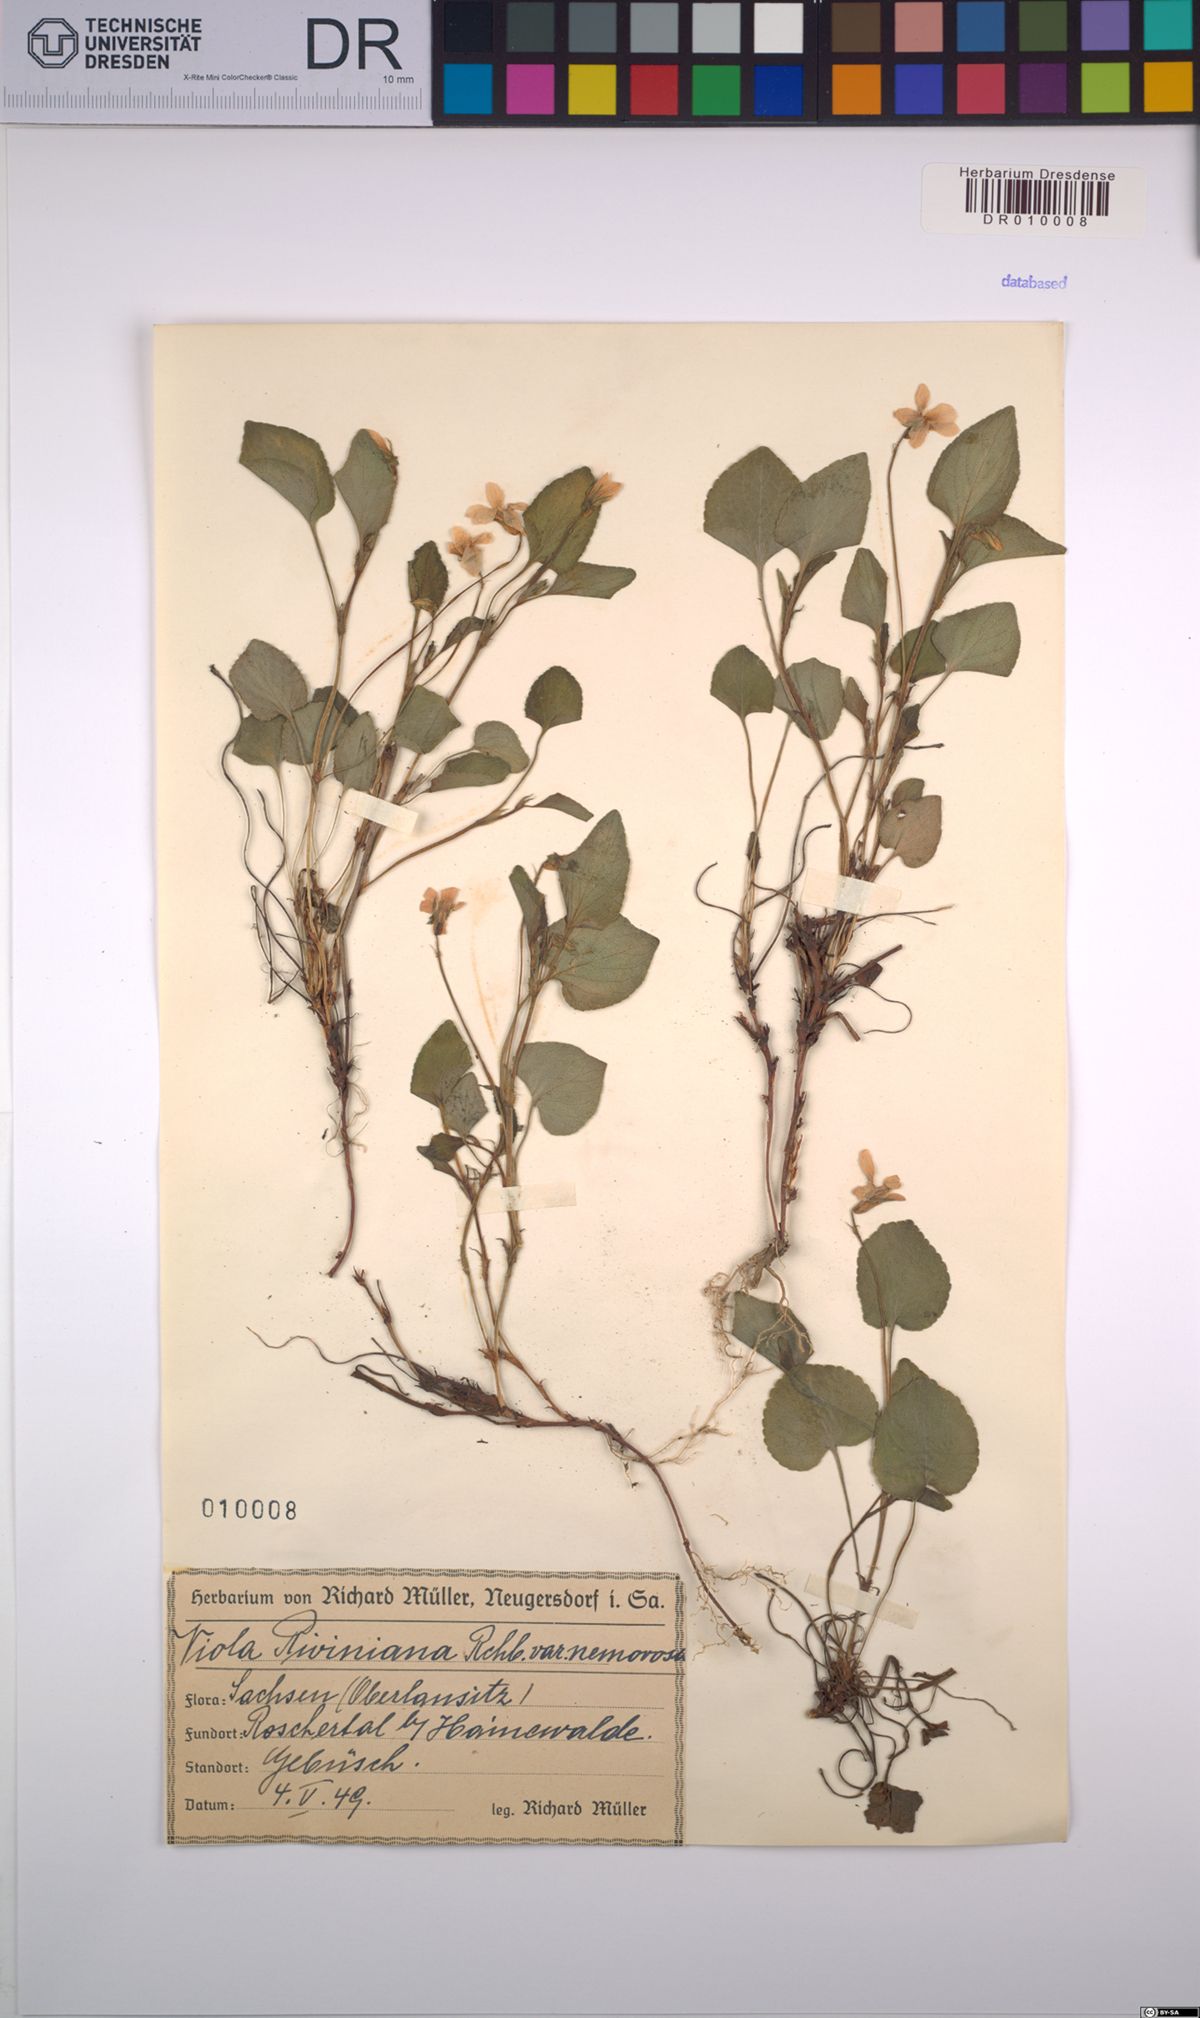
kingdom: Plantae
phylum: Tracheophyta
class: Magnoliopsida
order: Malpighiales
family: Violaceae
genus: Viola
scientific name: Viola riviniana
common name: Common dog-violet
